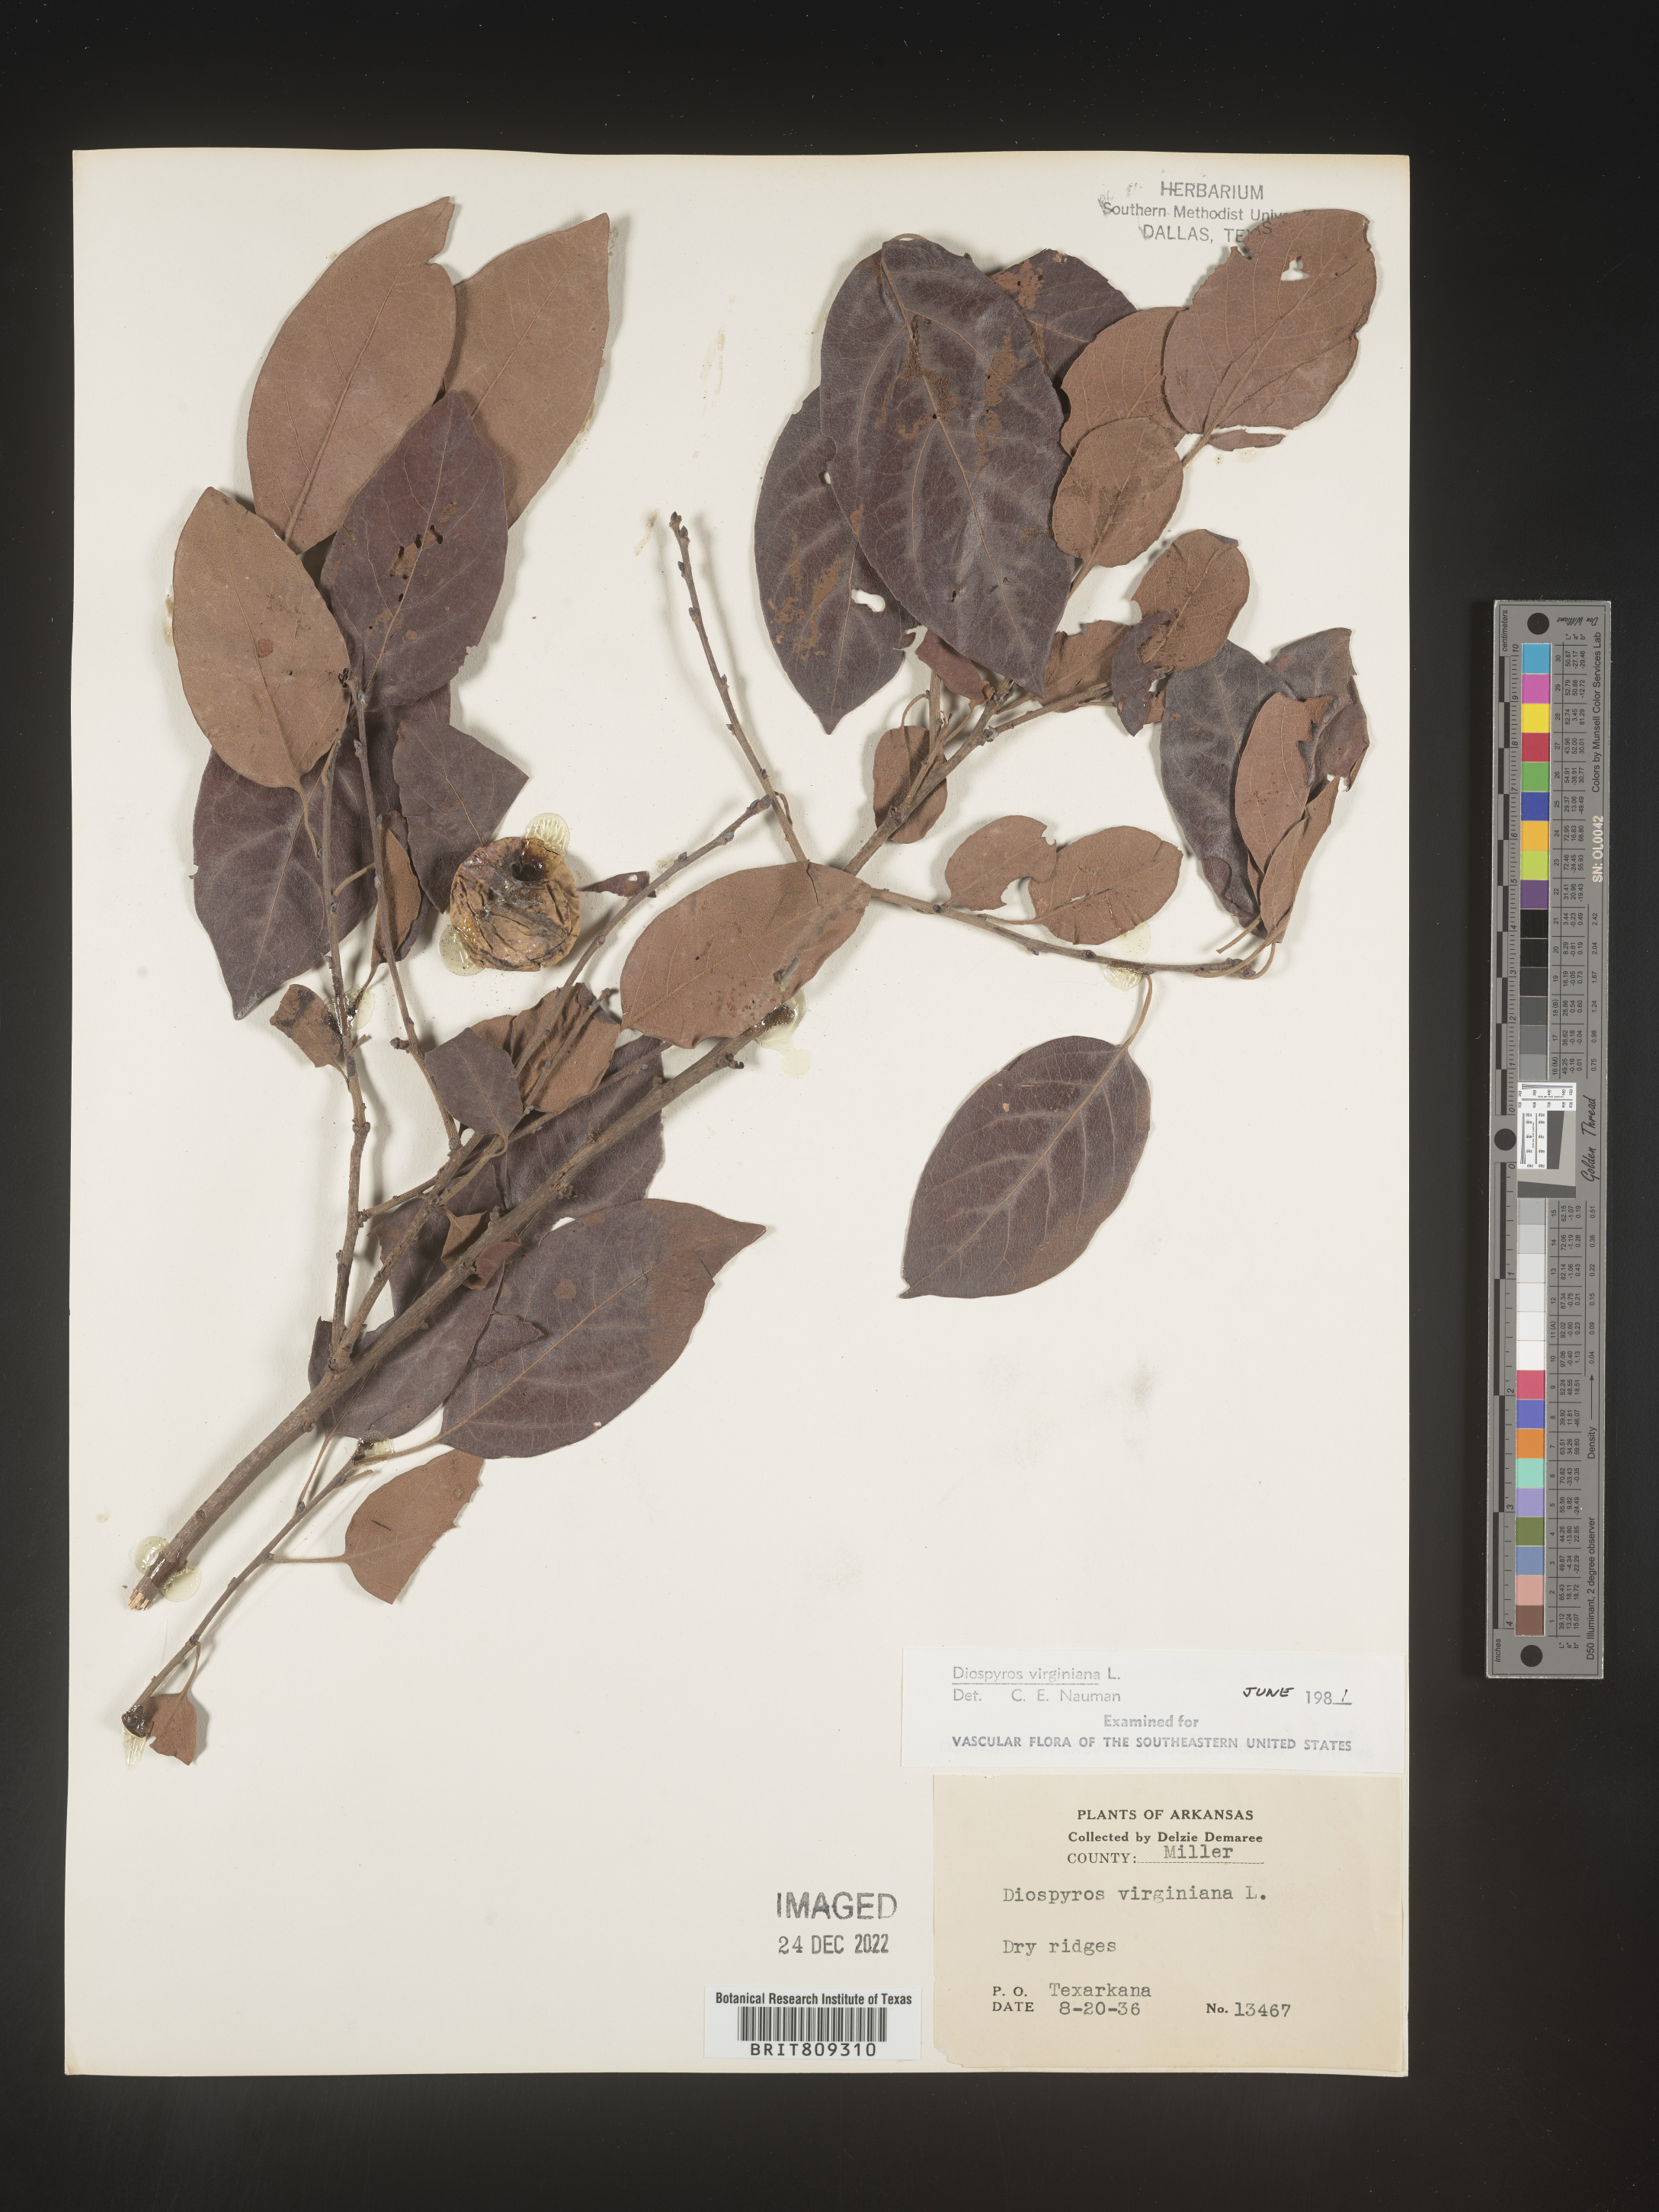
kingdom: Plantae
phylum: Tracheophyta
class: Magnoliopsida
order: Ericales
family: Ebenaceae
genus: Diospyros
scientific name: Diospyros virginiana
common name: Persimmon
